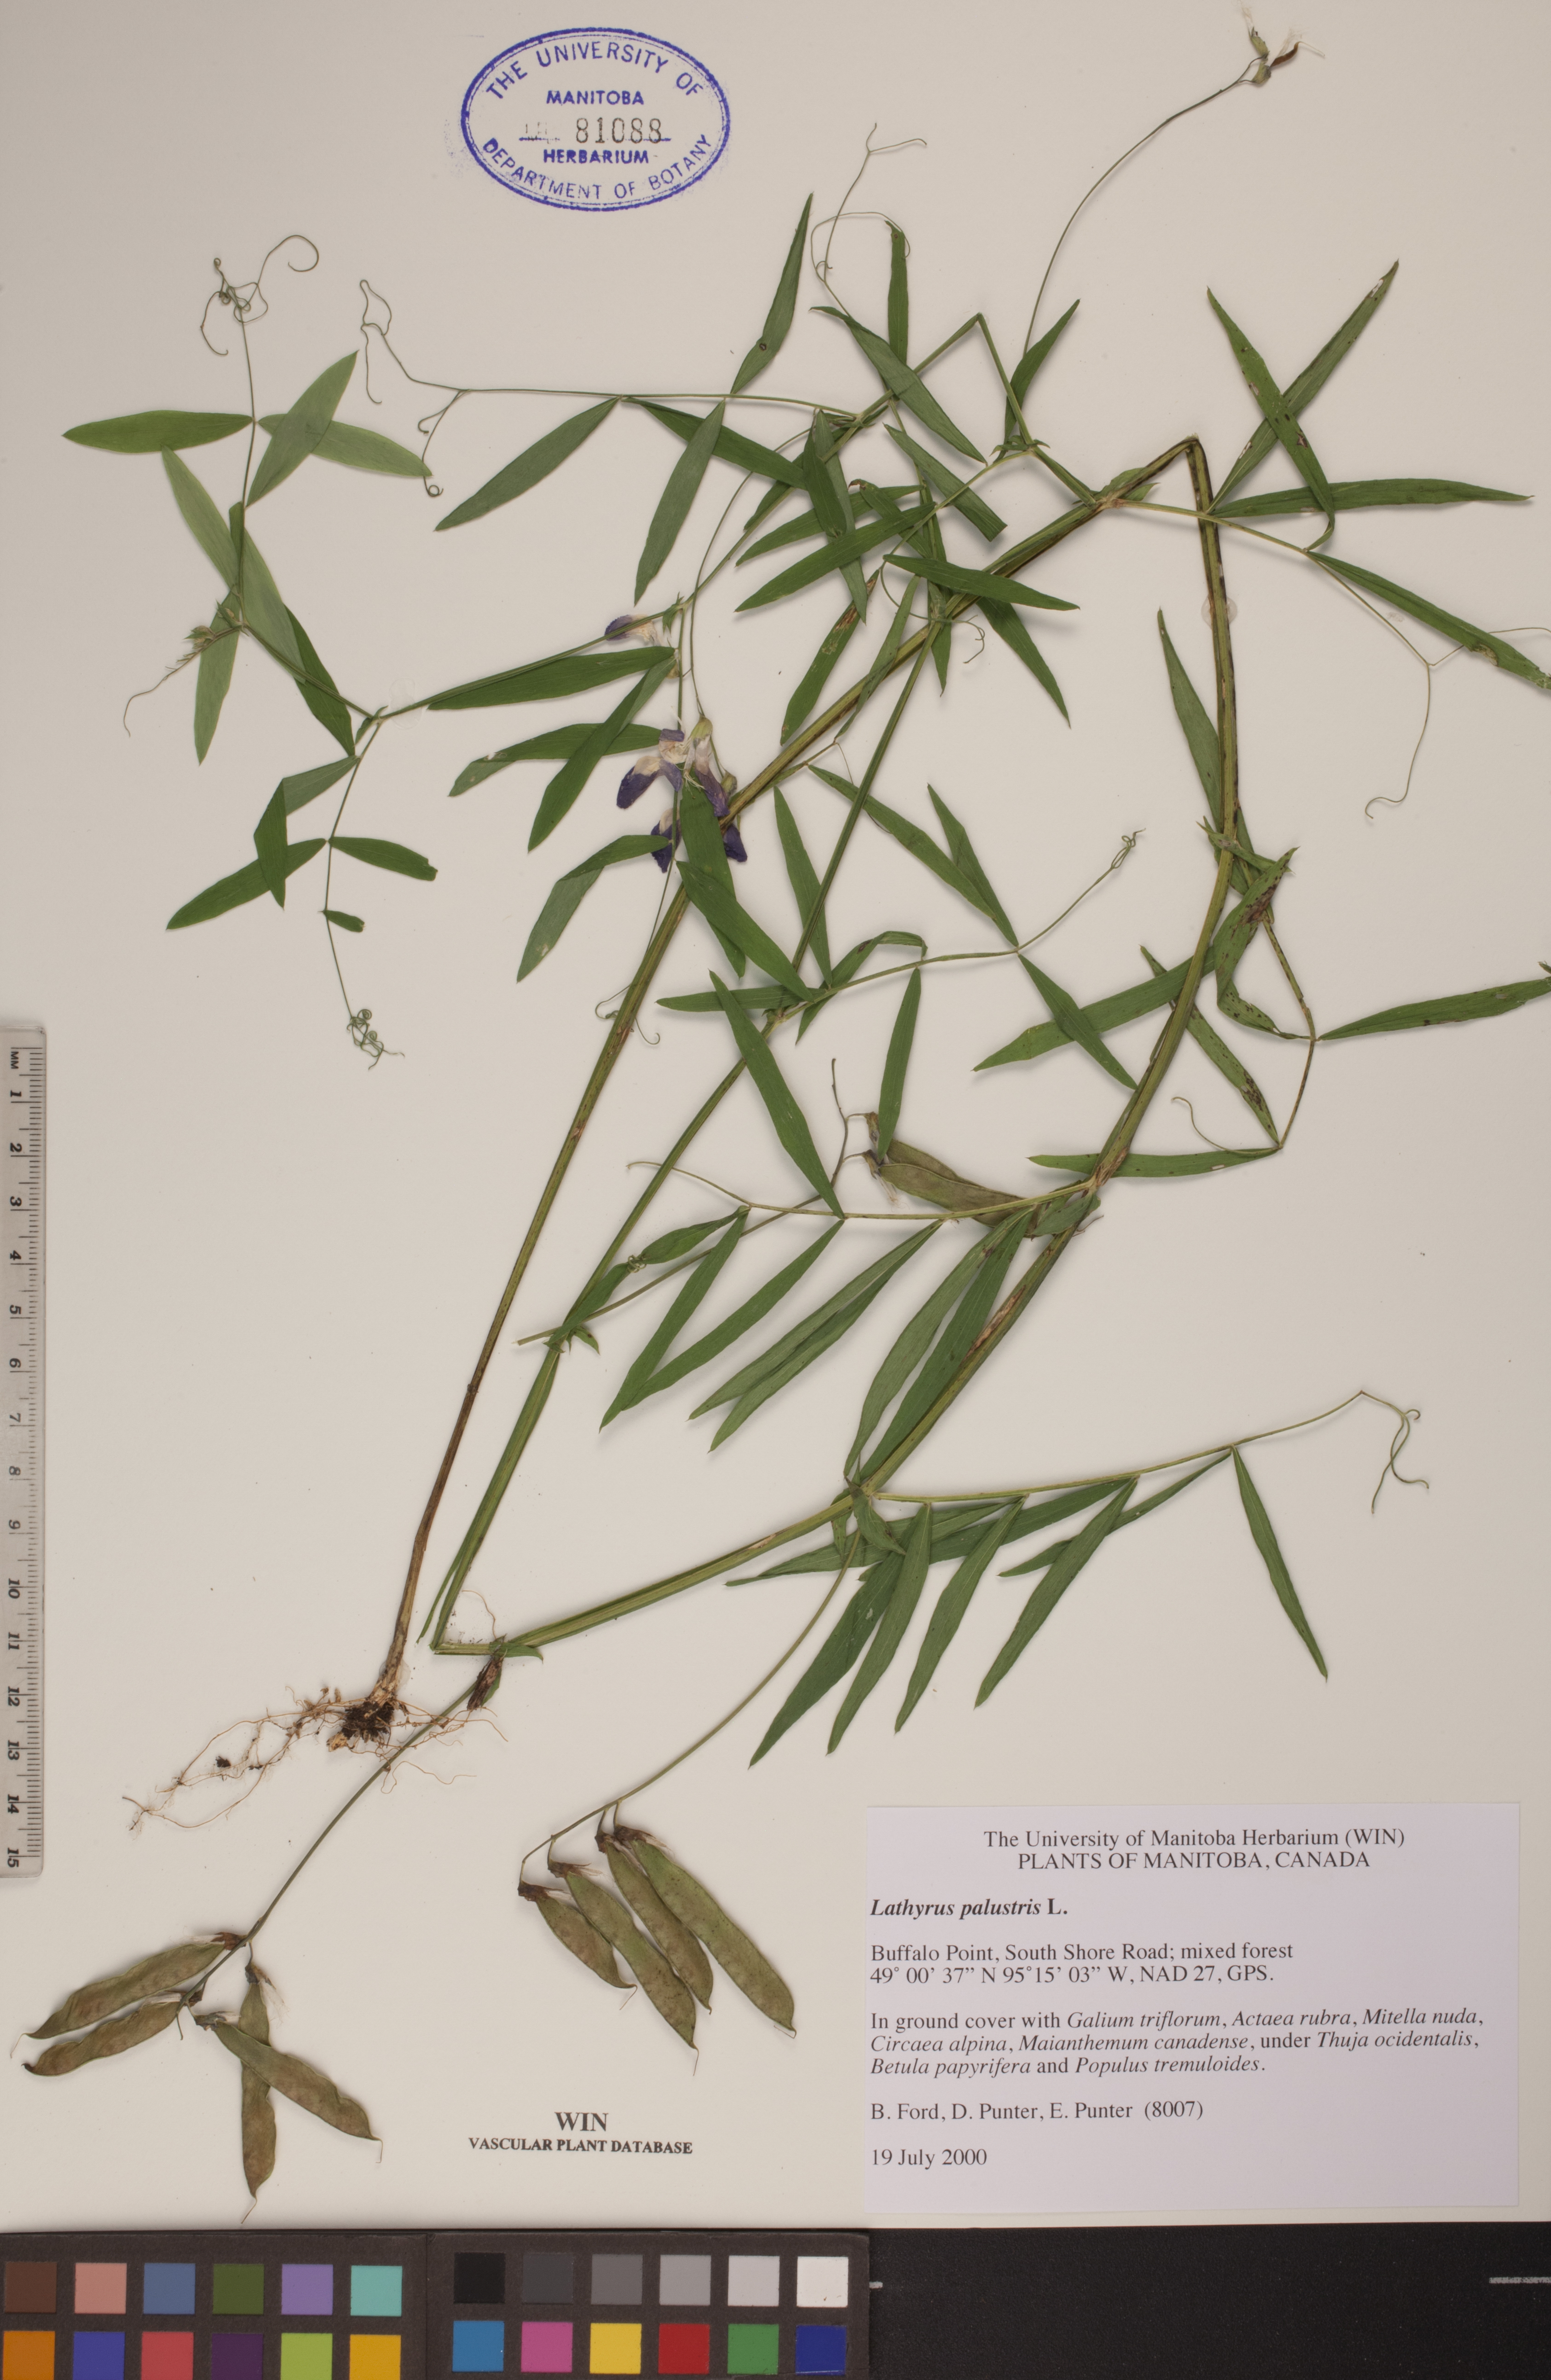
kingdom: Plantae
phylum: Tracheophyta
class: Magnoliopsida
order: Fabales
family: Fabaceae
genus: Lathyrus
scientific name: Lathyrus palustris
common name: Marsh pea
